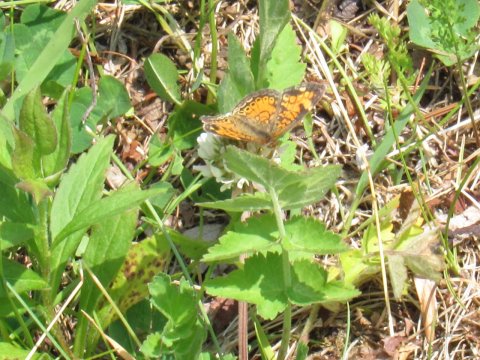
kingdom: Animalia
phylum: Arthropoda
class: Insecta
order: Lepidoptera
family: Nymphalidae
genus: Phyciodes
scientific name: Phyciodes tharos
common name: Pearl Crescent
